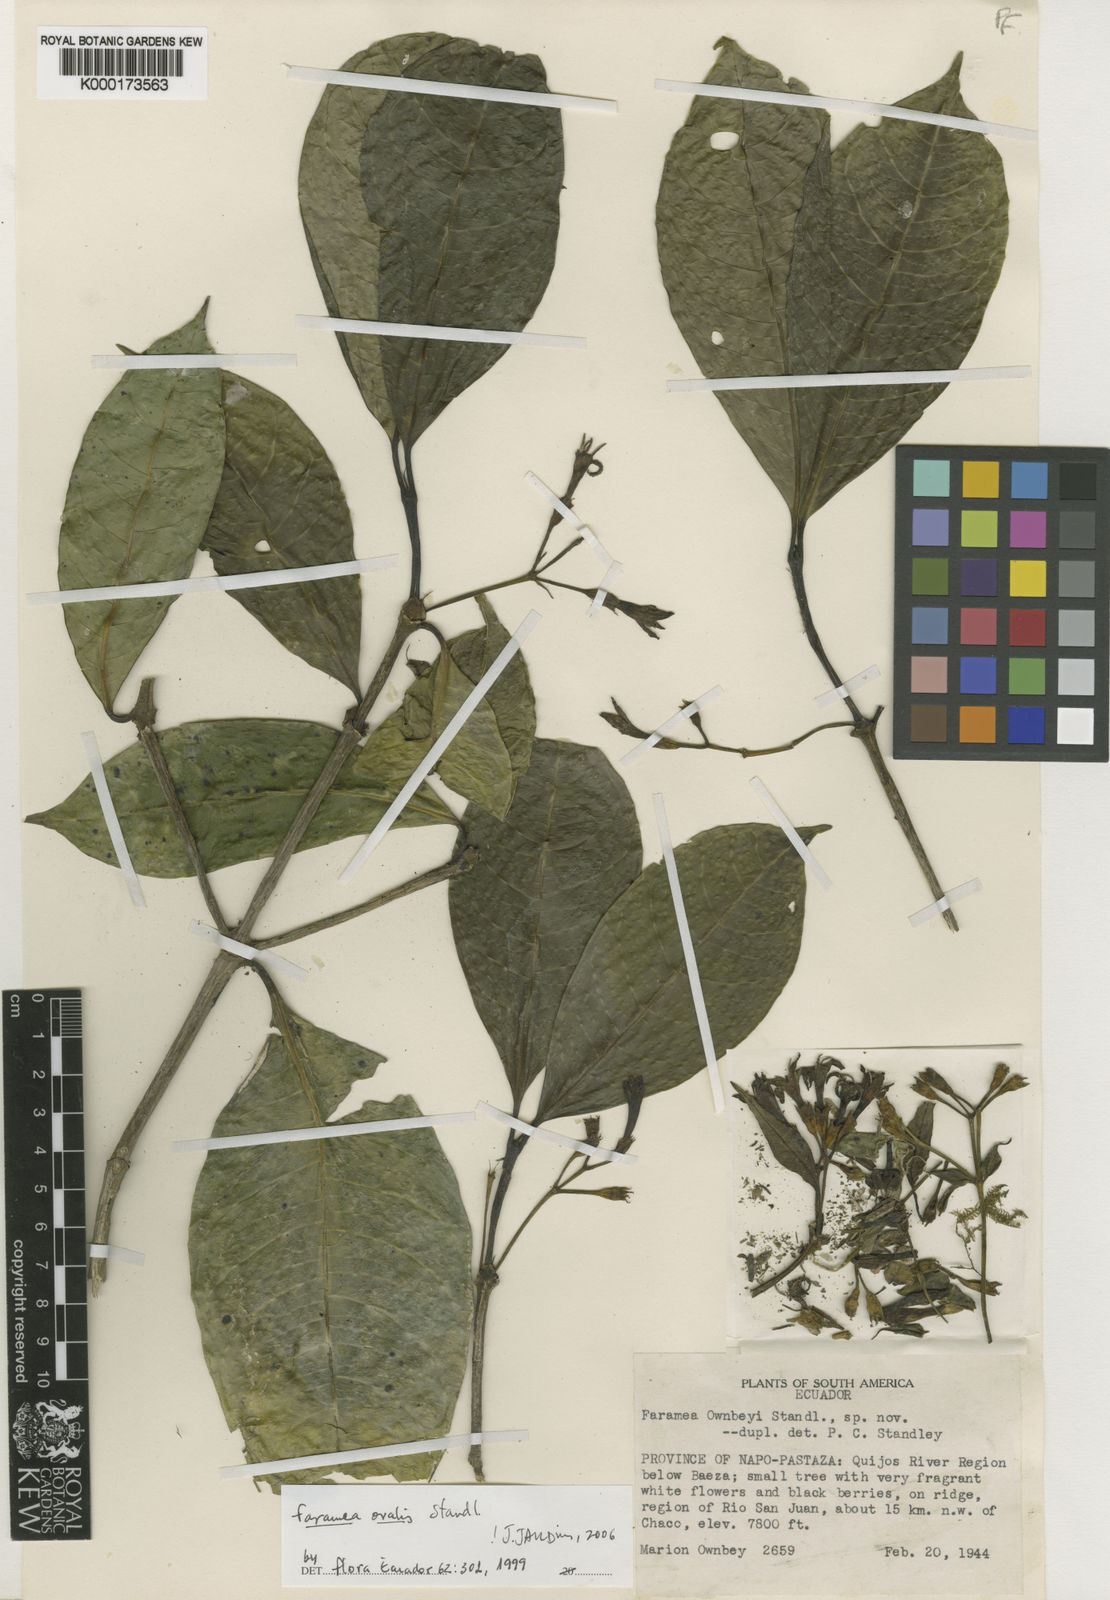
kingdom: Plantae
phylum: Tracheophyta
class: Magnoliopsida
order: Gentianales
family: Rubiaceae
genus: Faramea
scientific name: Faramea ovalis
